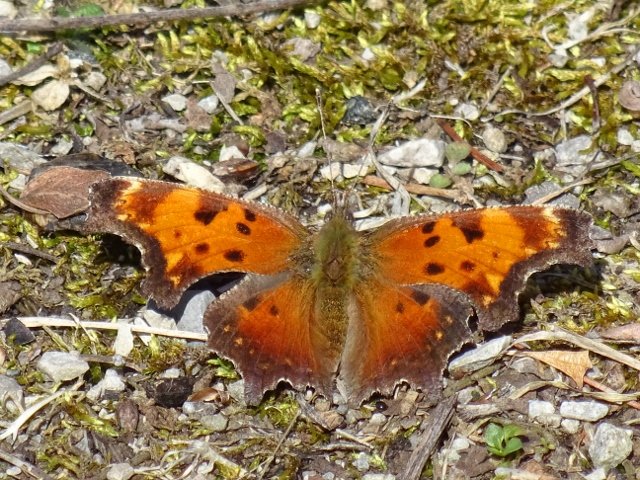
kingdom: Animalia
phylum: Arthropoda
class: Insecta
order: Lepidoptera
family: Nymphalidae
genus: Polygonia
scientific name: Polygonia progne
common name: Gray Comma
